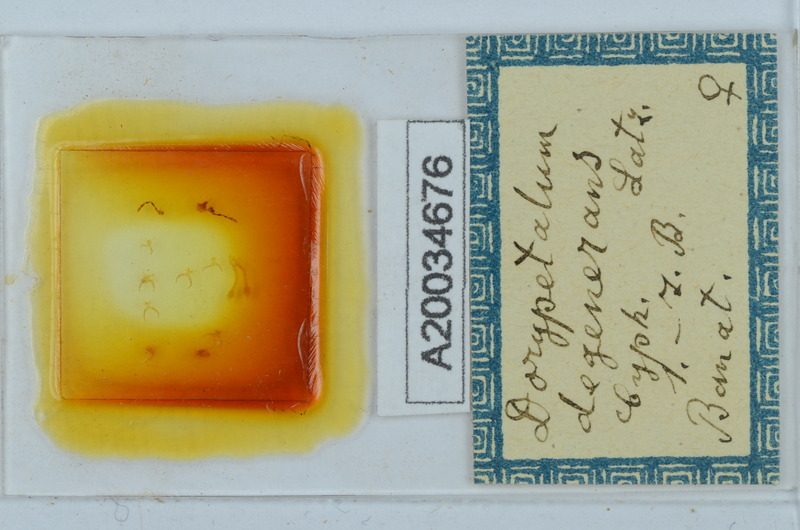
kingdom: Animalia
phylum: Arthropoda
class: Diplopoda
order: Callipodida
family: Dorypetalidae
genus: Dorypetalum
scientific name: Dorypetalum degenerans
